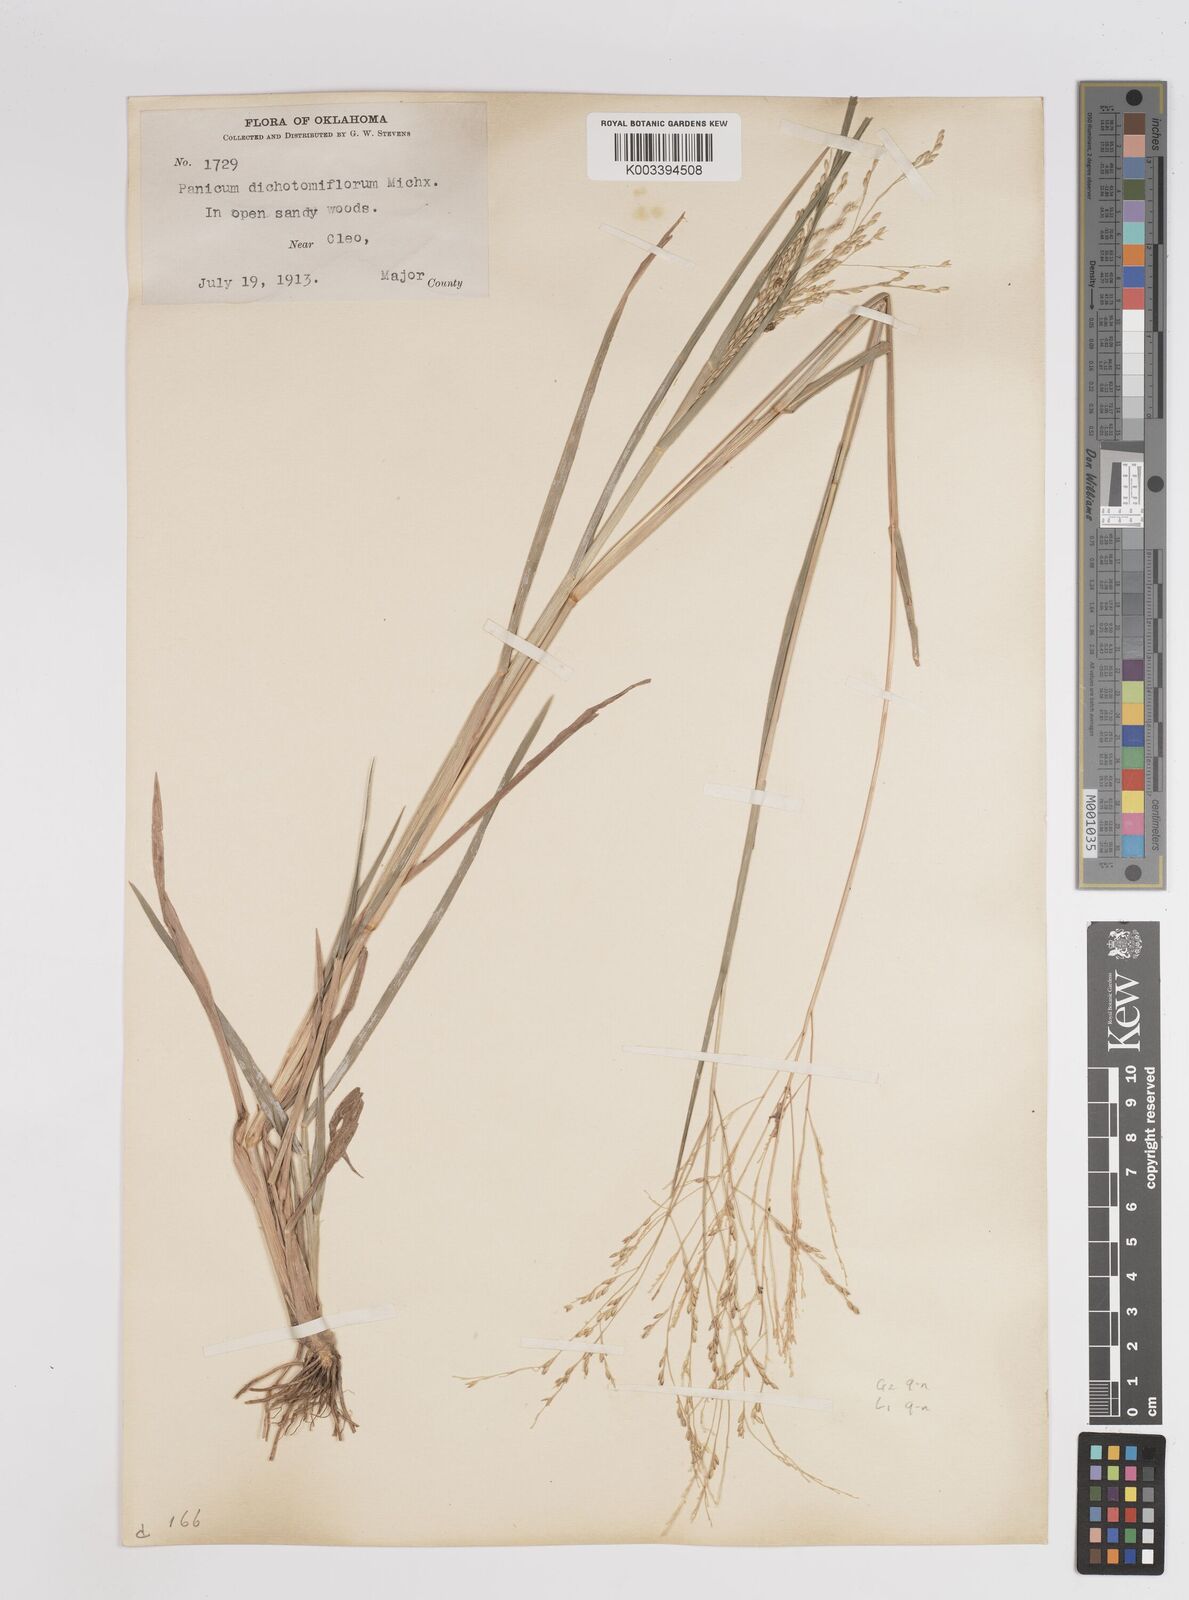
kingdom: Plantae
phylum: Tracheophyta
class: Liliopsida
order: Poales
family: Poaceae
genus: Panicum
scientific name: Panicum dichotomiflorum
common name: Autumn millet
